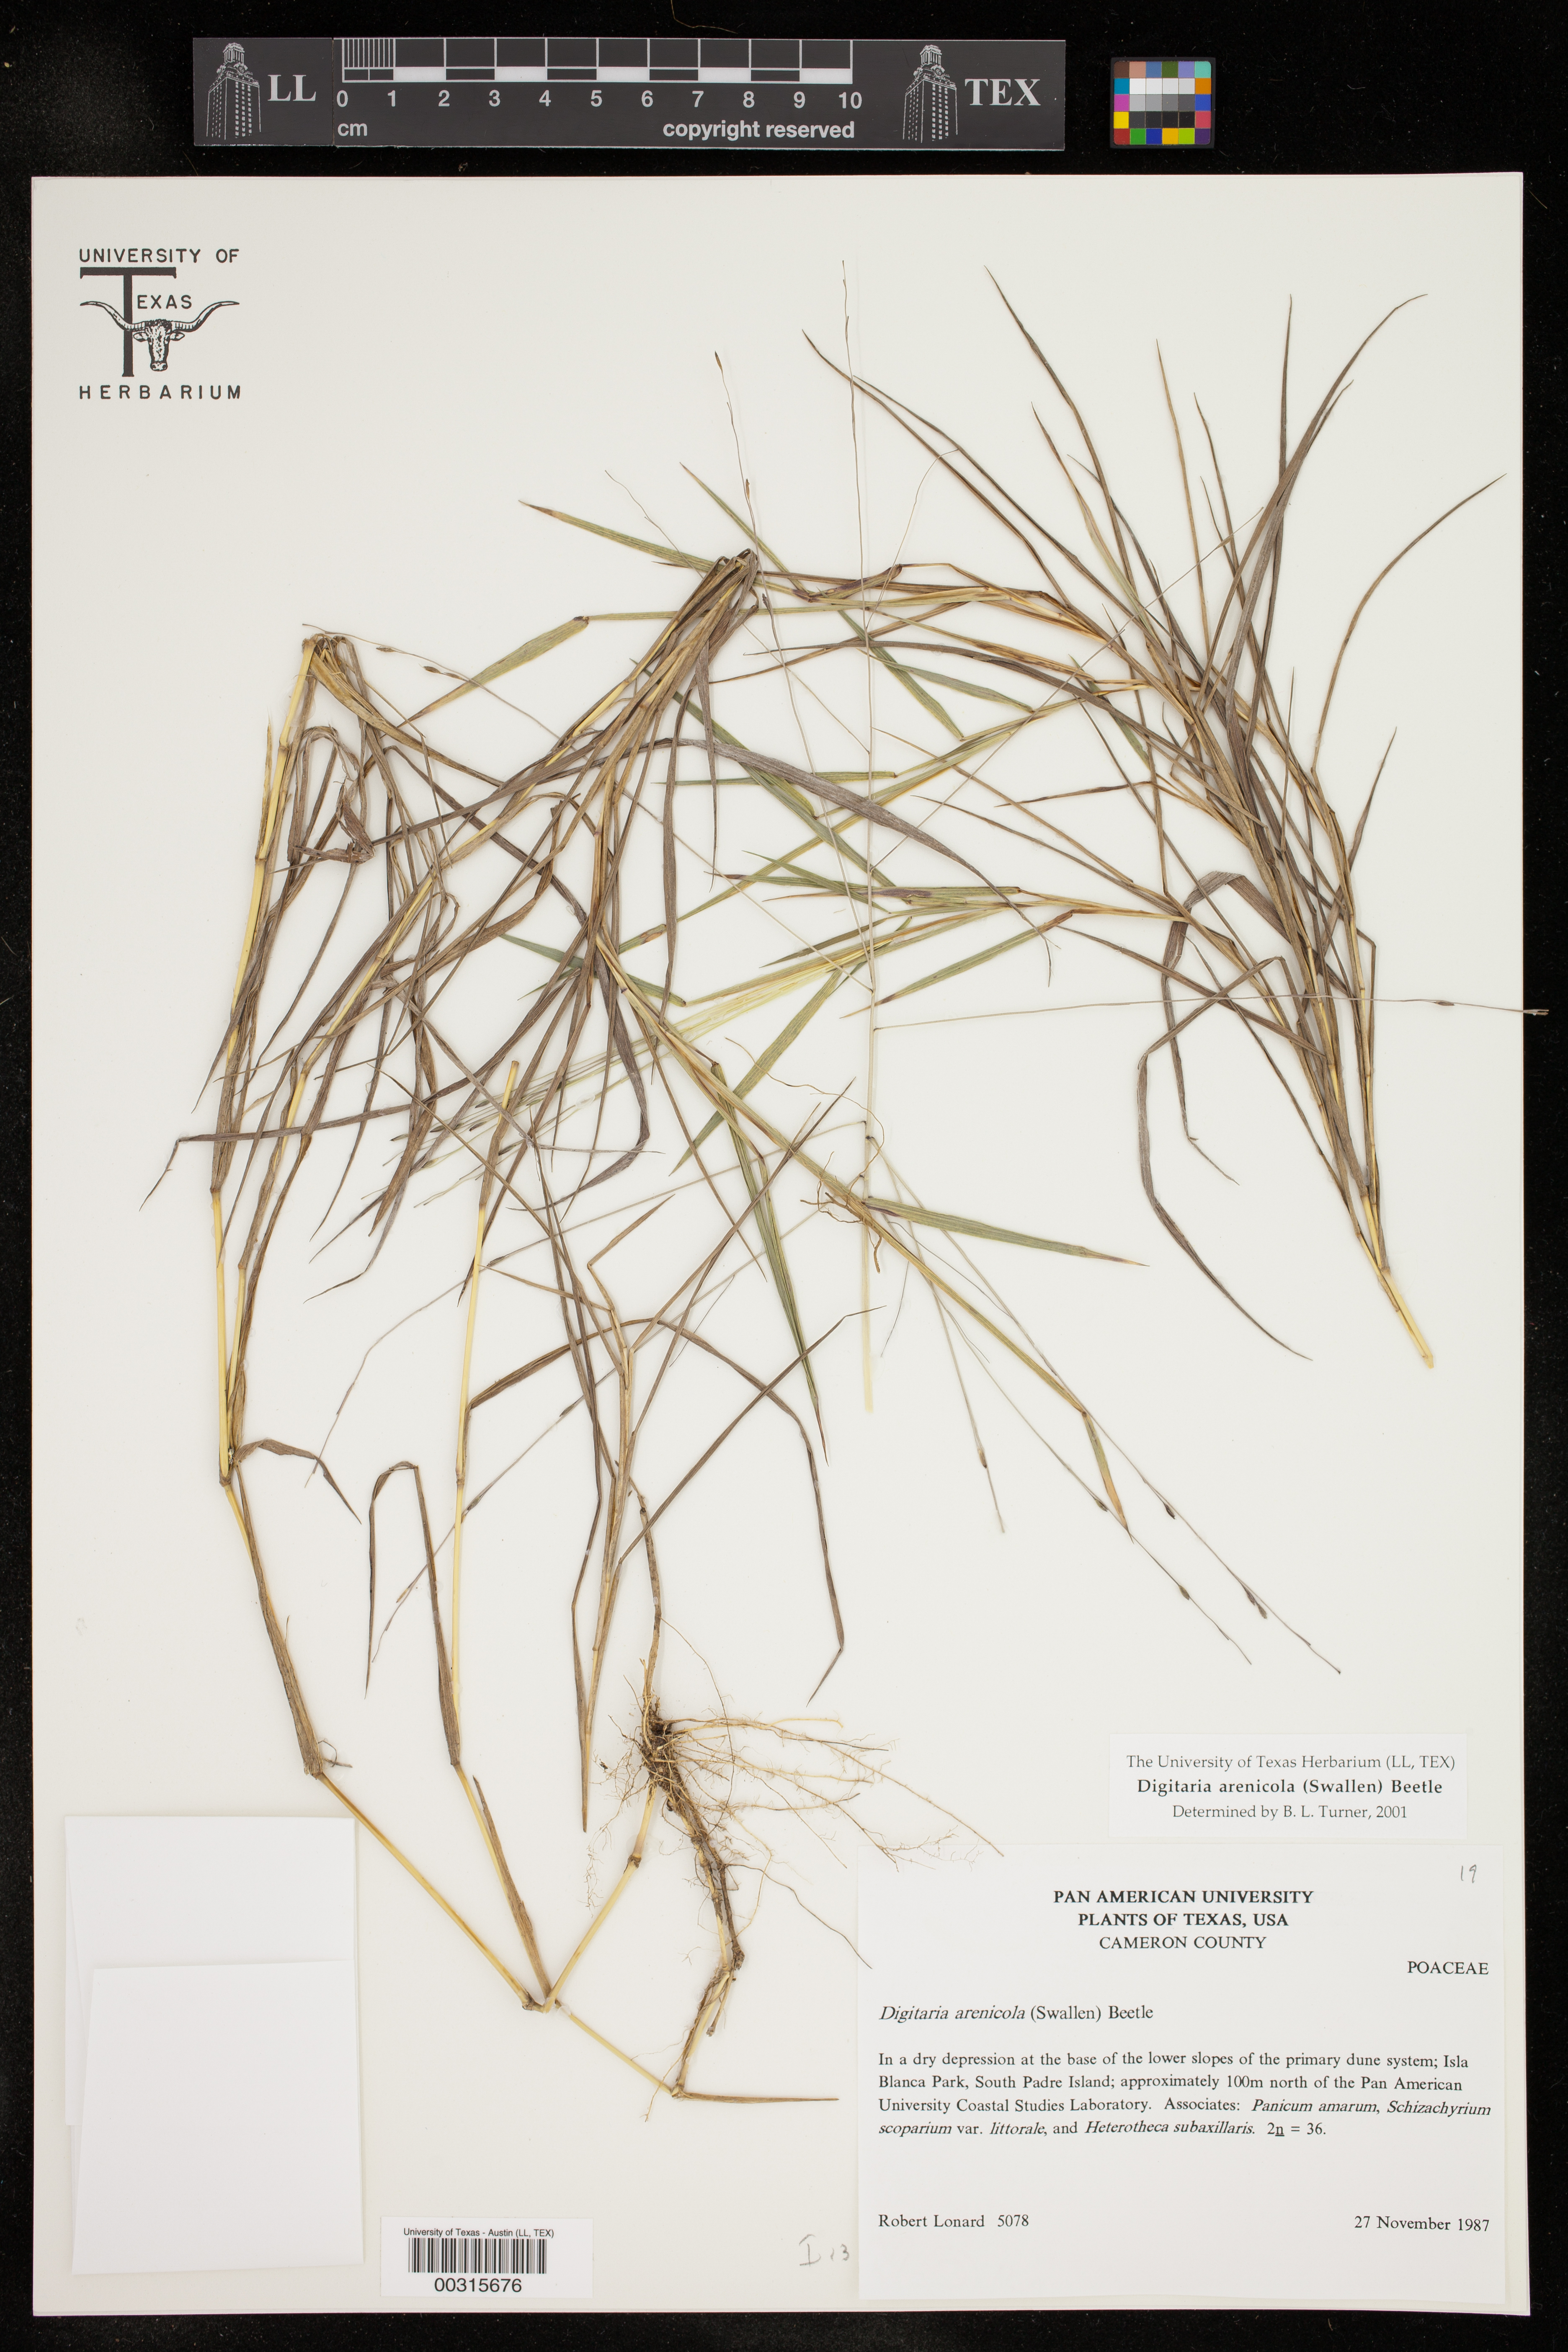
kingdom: Plantae
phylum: Tracheophyta
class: Liliopsida
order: Poales
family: Poaceae
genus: Digitaria
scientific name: Digitaria arenicola
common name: Sand witchgrass
